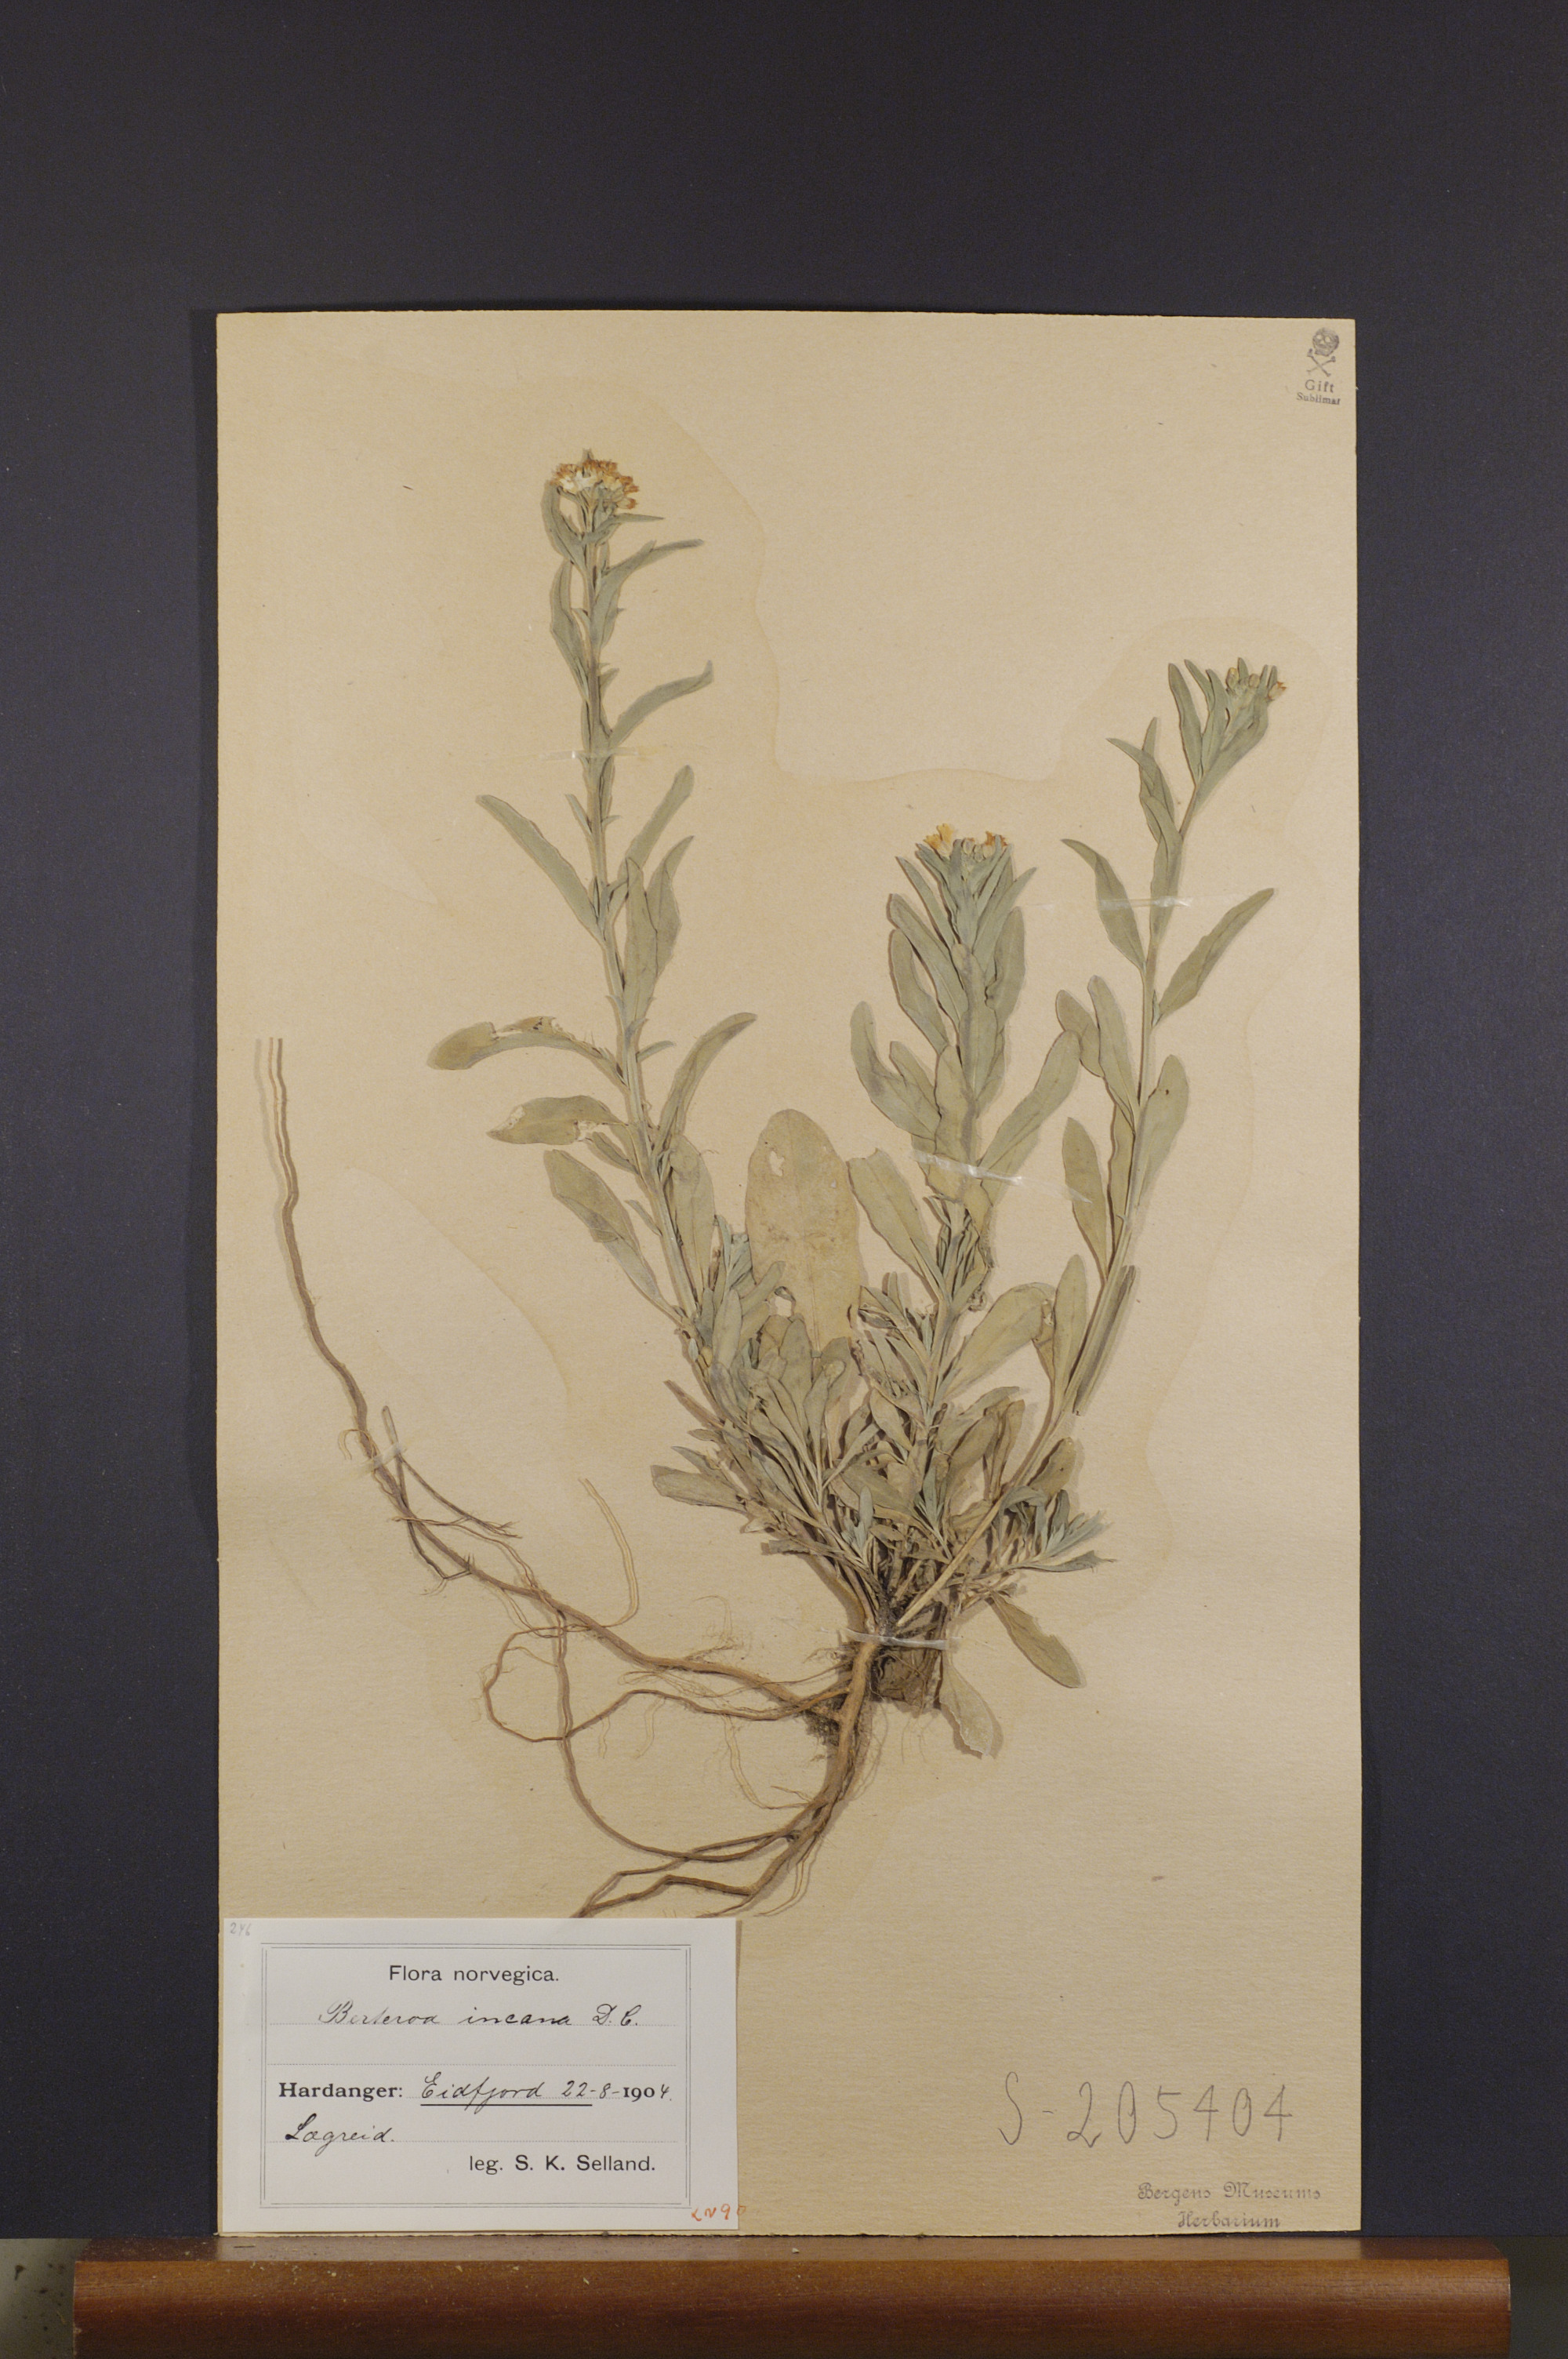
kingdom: Plantae
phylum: Tracheophyta
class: Magnoliopsida
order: Brassicales
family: Brassicaceae
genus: Berteroa
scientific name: Berteroa incana
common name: Hoary alison
